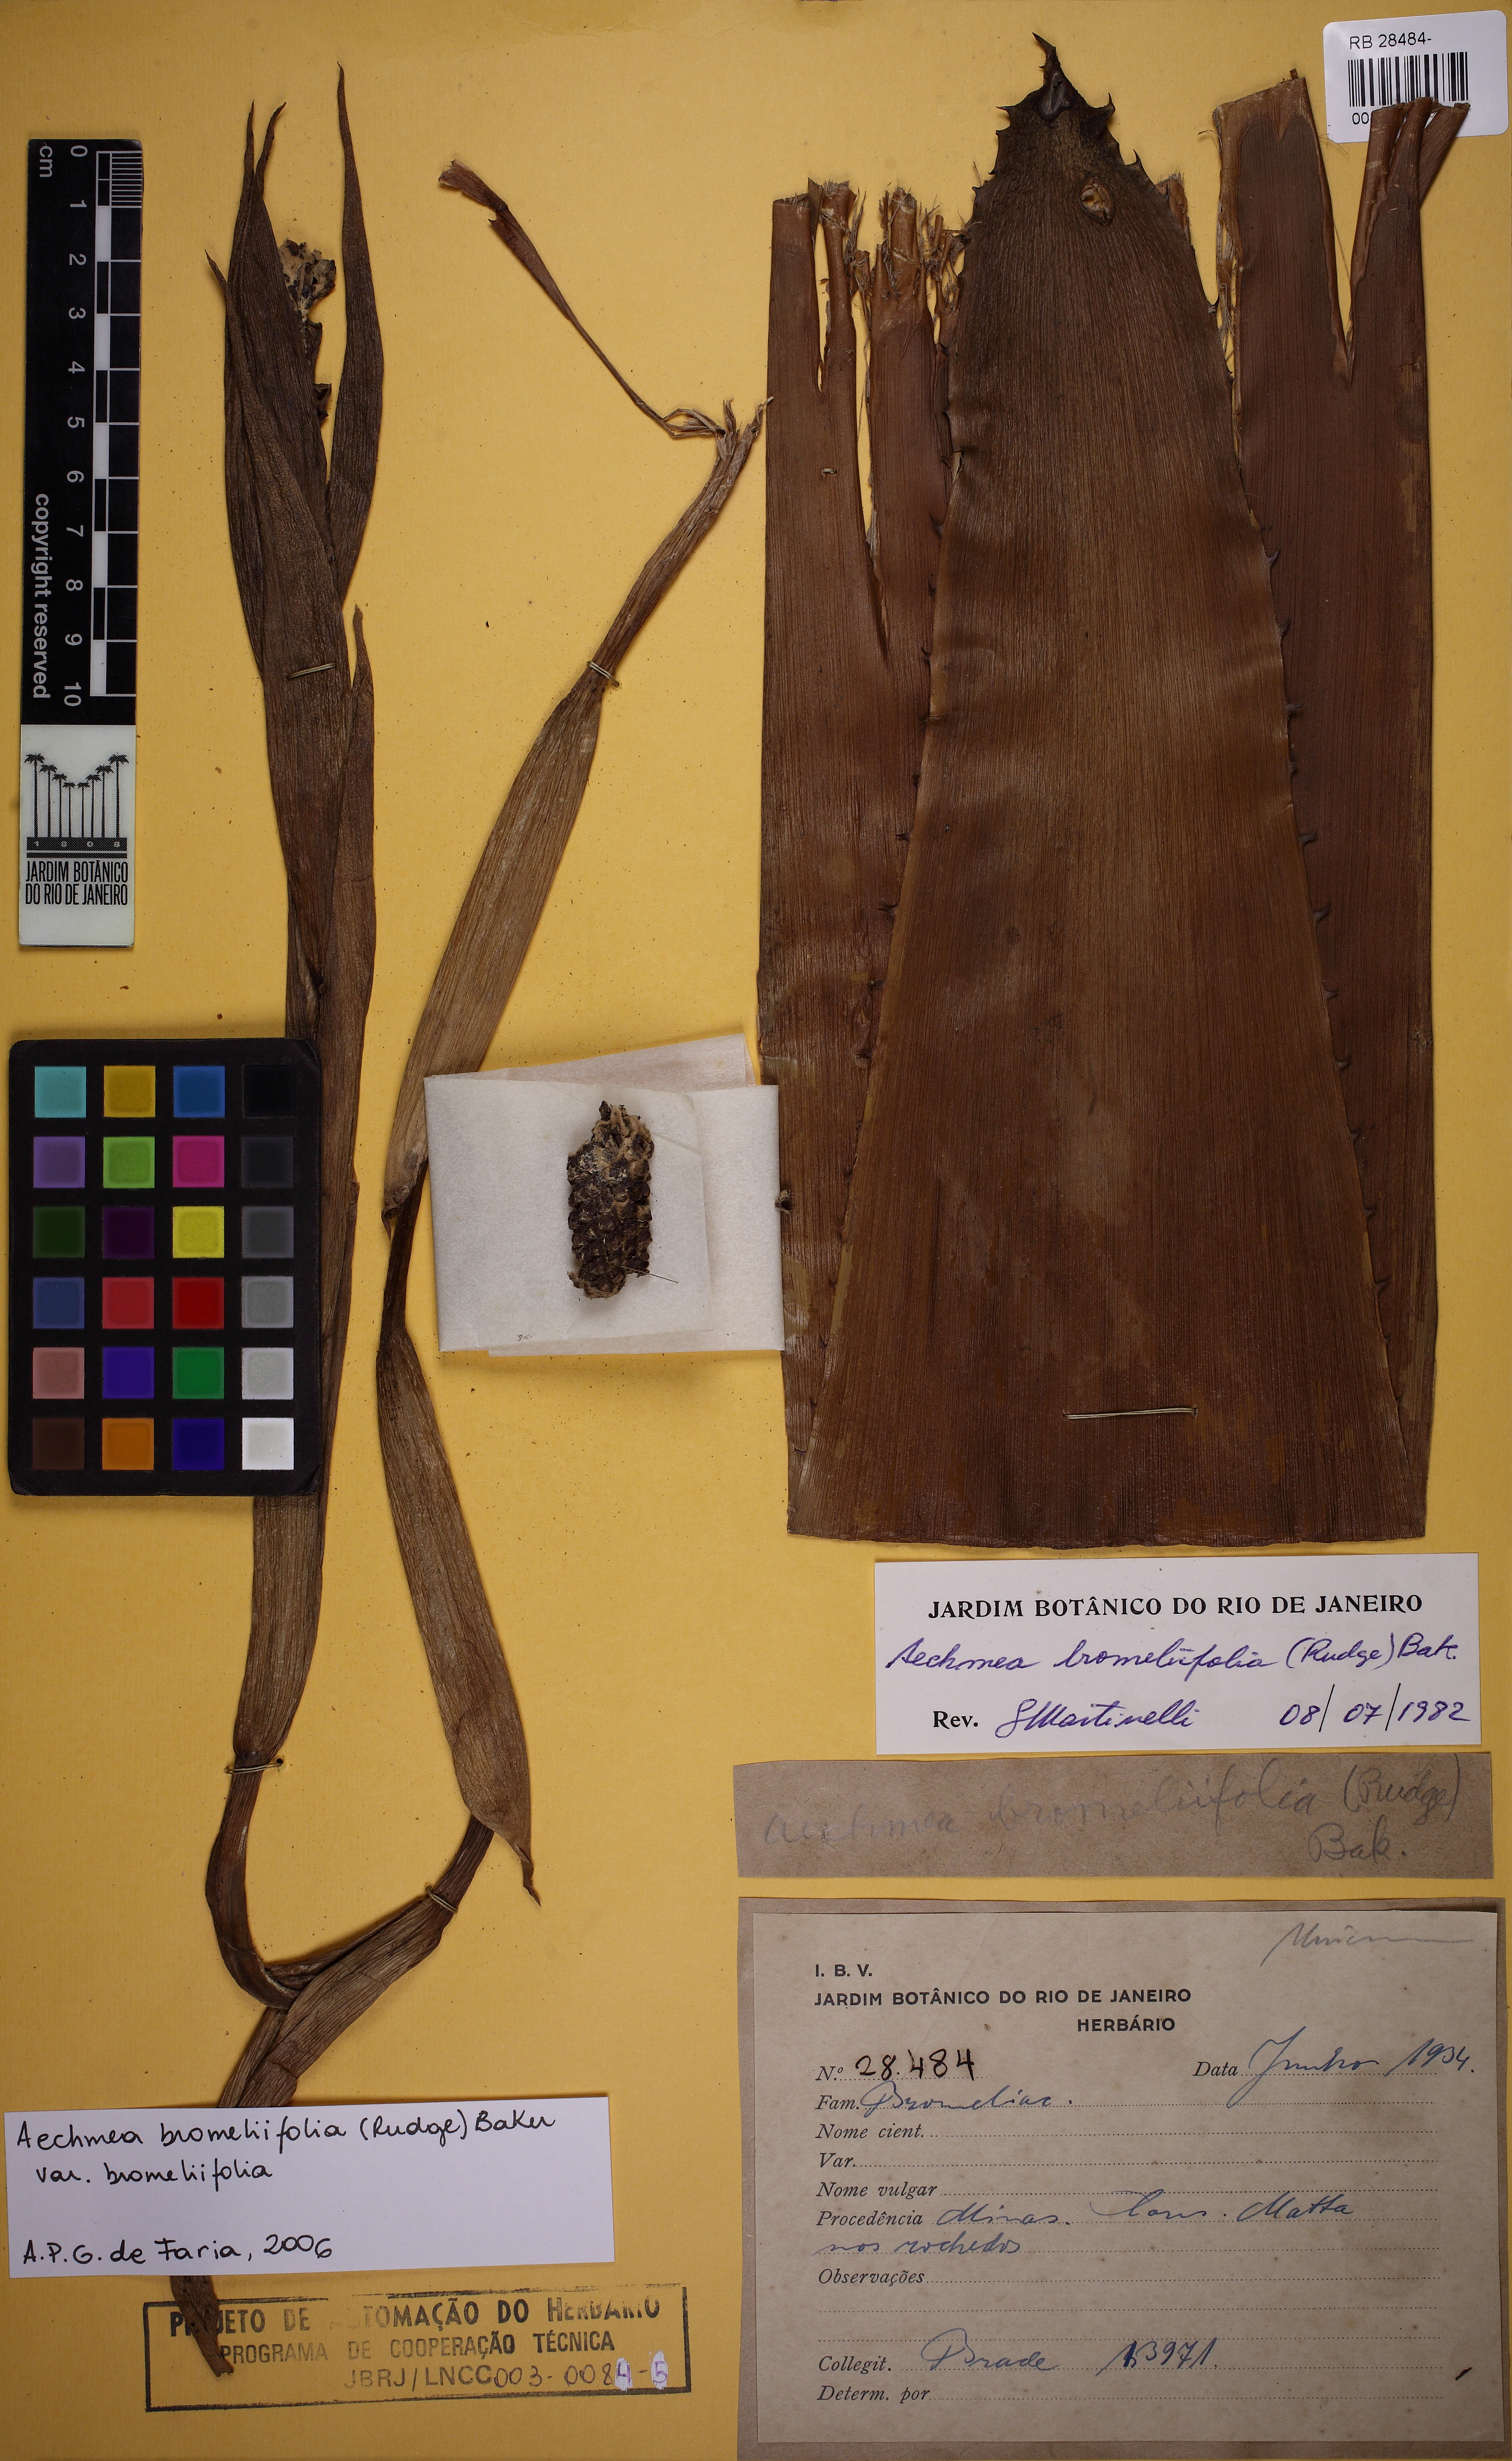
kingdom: Plantae
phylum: Tracheophyta
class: Liliopsida
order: Poales
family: Bromeliaceae
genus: Aechmea
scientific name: Aechmea bromeliifolia
